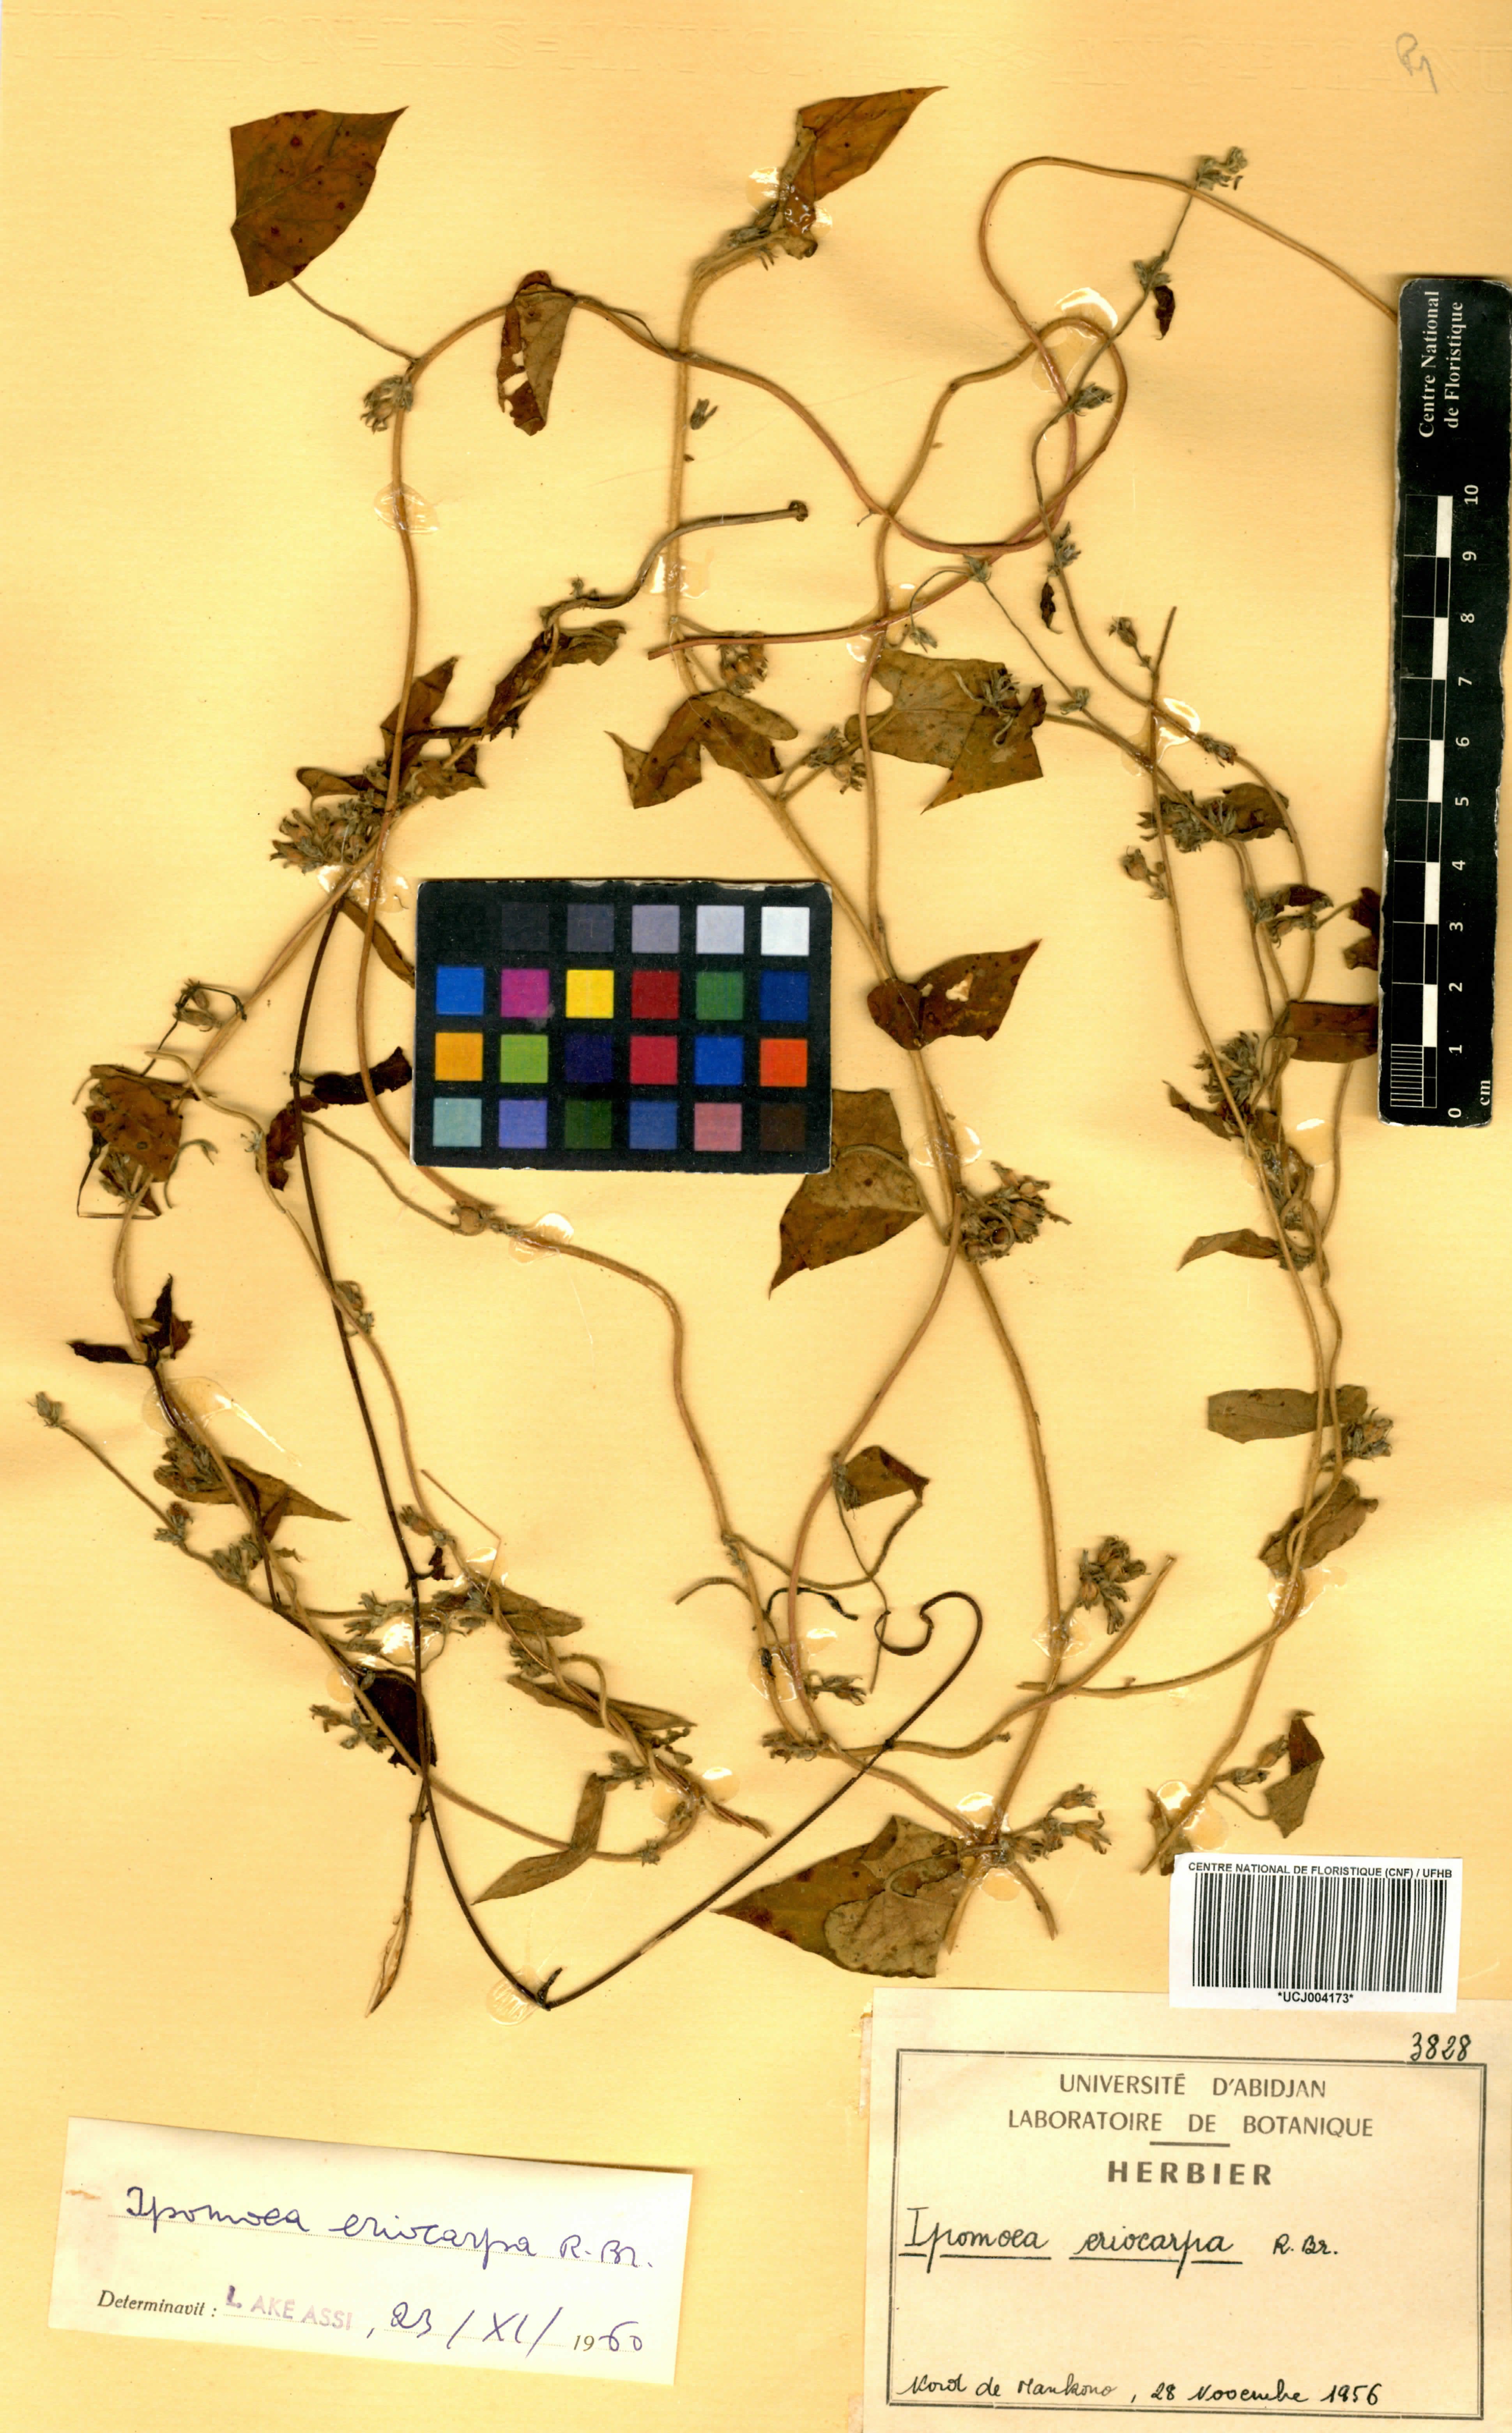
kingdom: Plantae
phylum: Tracheophyta
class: Magnoliopsida
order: Solanales
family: Convolvulaceae
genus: Ipomoea
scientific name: Ipomoea eriocarpa
